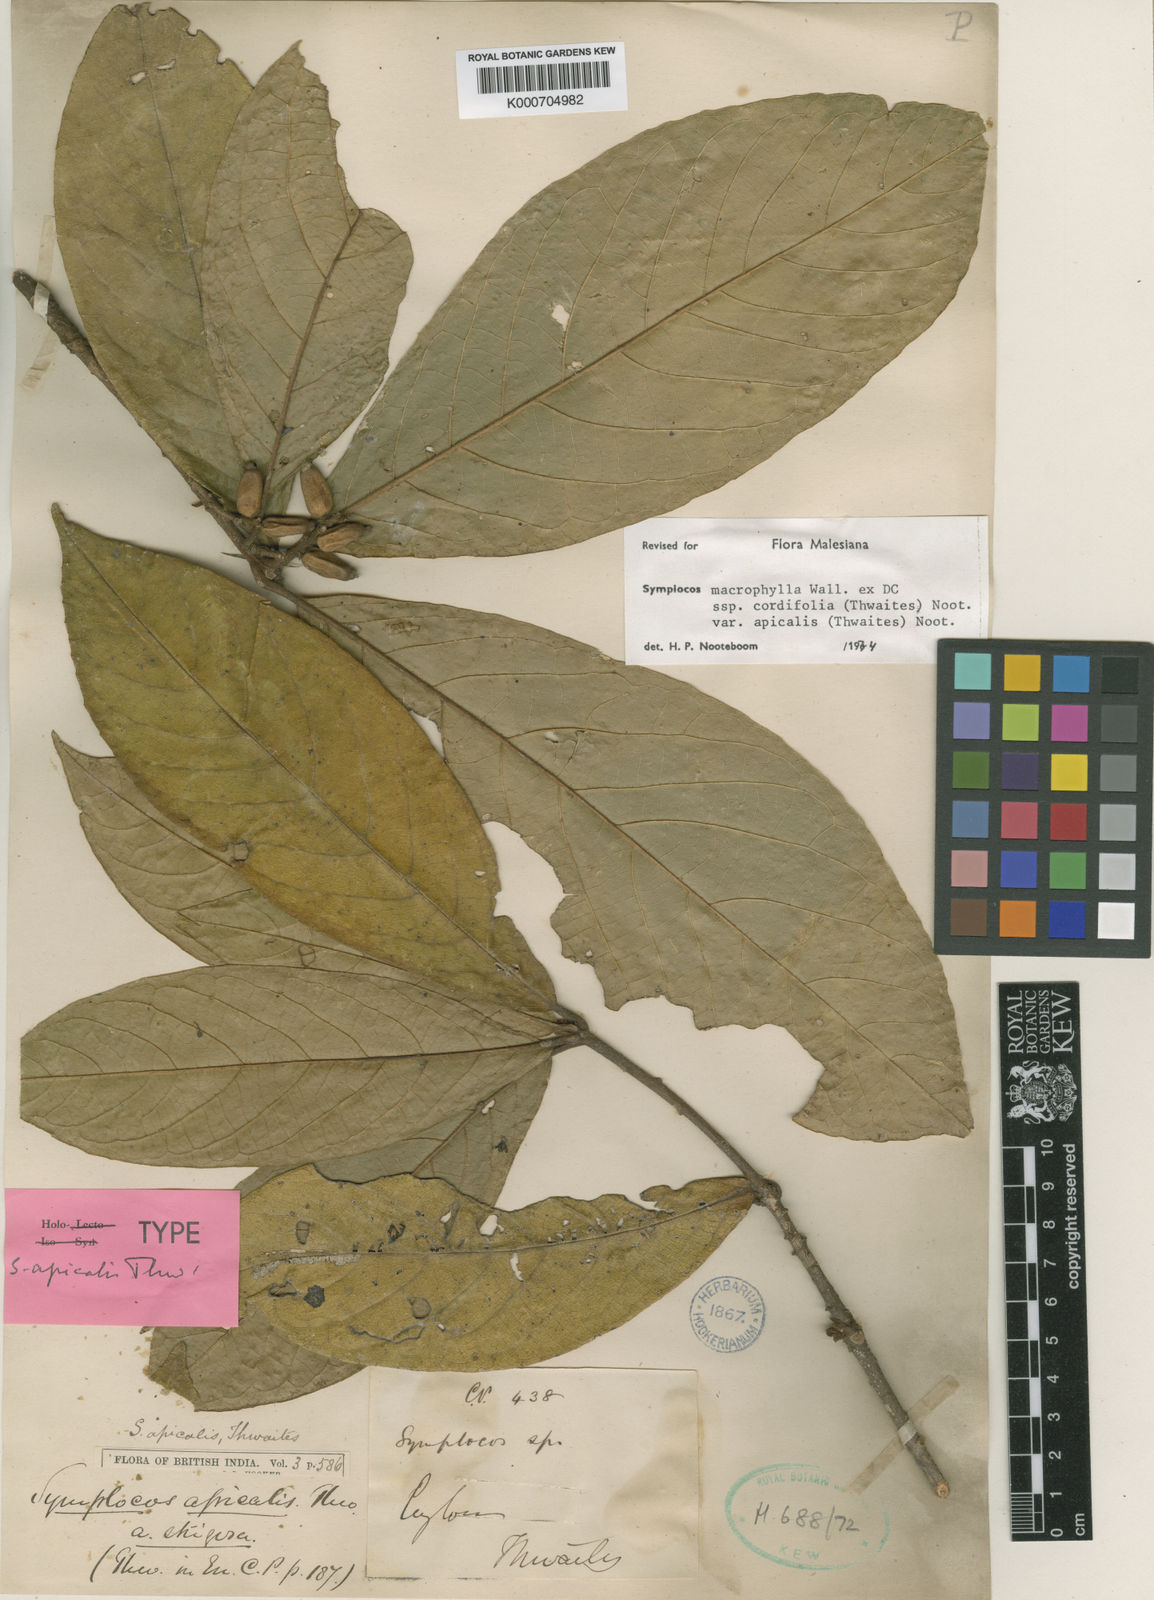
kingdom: Plantae
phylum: Tracheophyta
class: Magnoliopsida
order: Ericales
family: Symplocaceae
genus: Symplocos
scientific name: Symplocos
